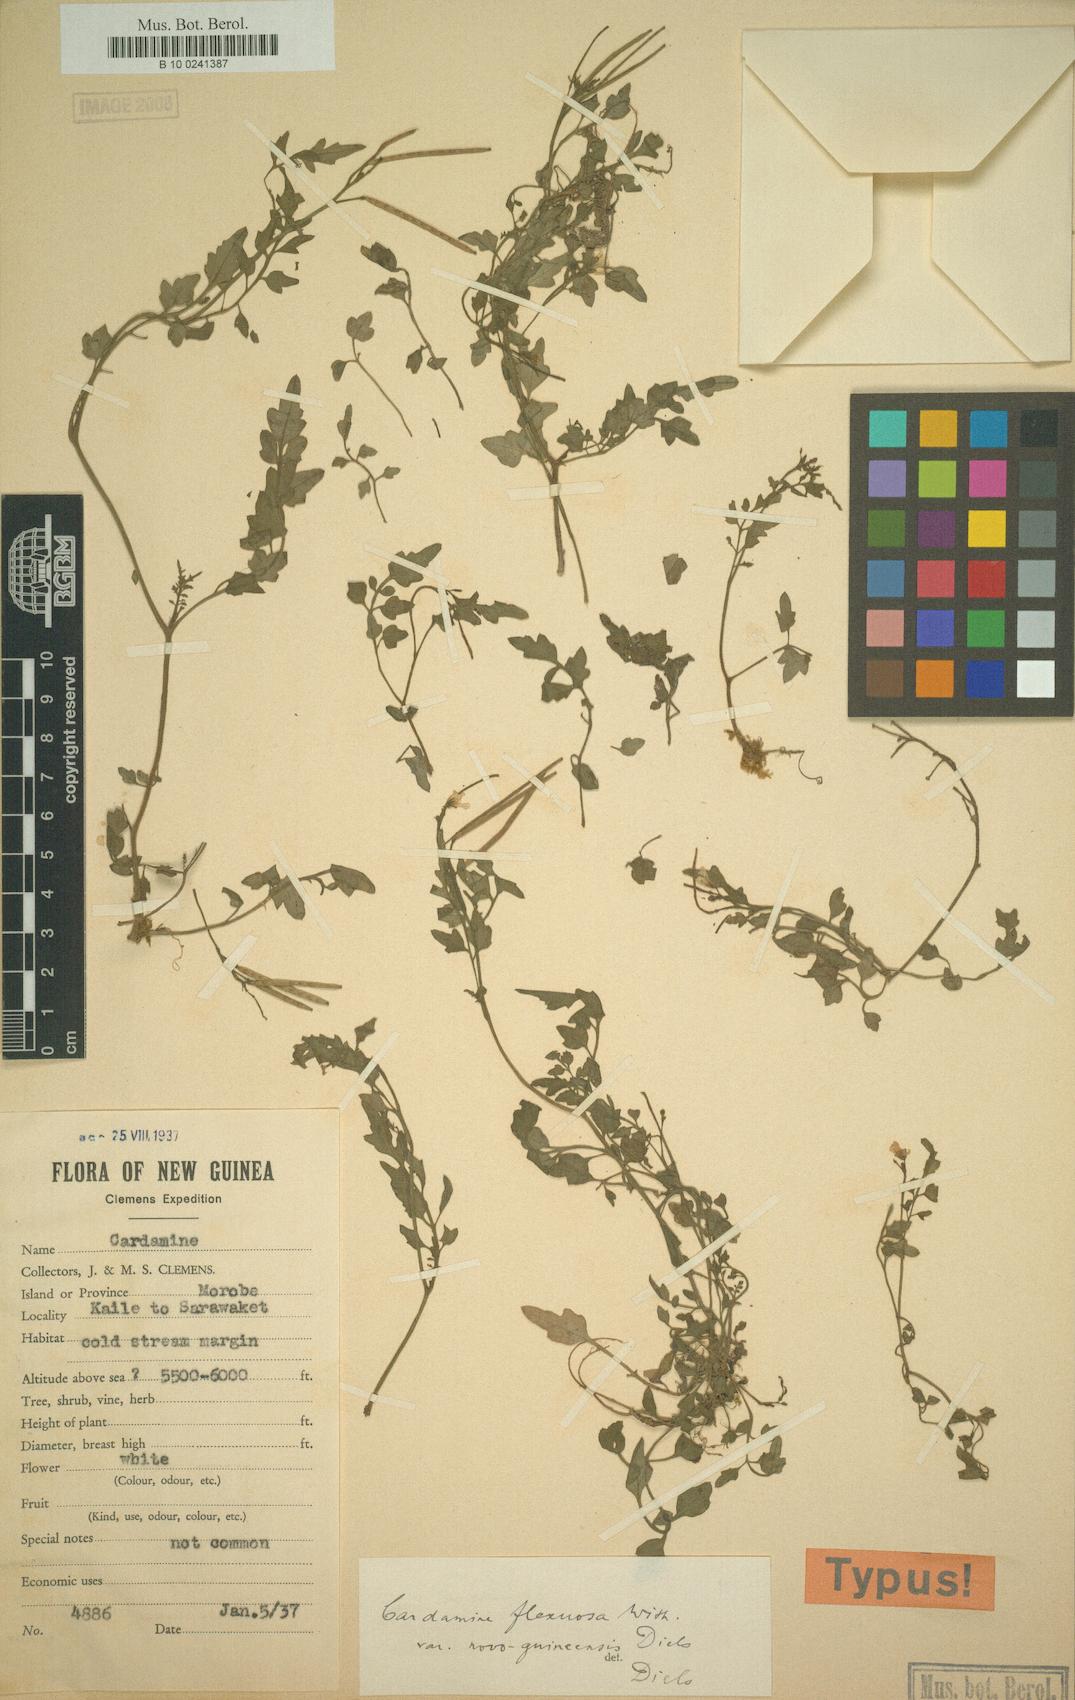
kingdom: Plantae
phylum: Tracheophyta
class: Magnoliopsida
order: Brassicales
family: Brassicaceae
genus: Cardamine
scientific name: Cardamine flexuosa
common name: Woodland bittercress
